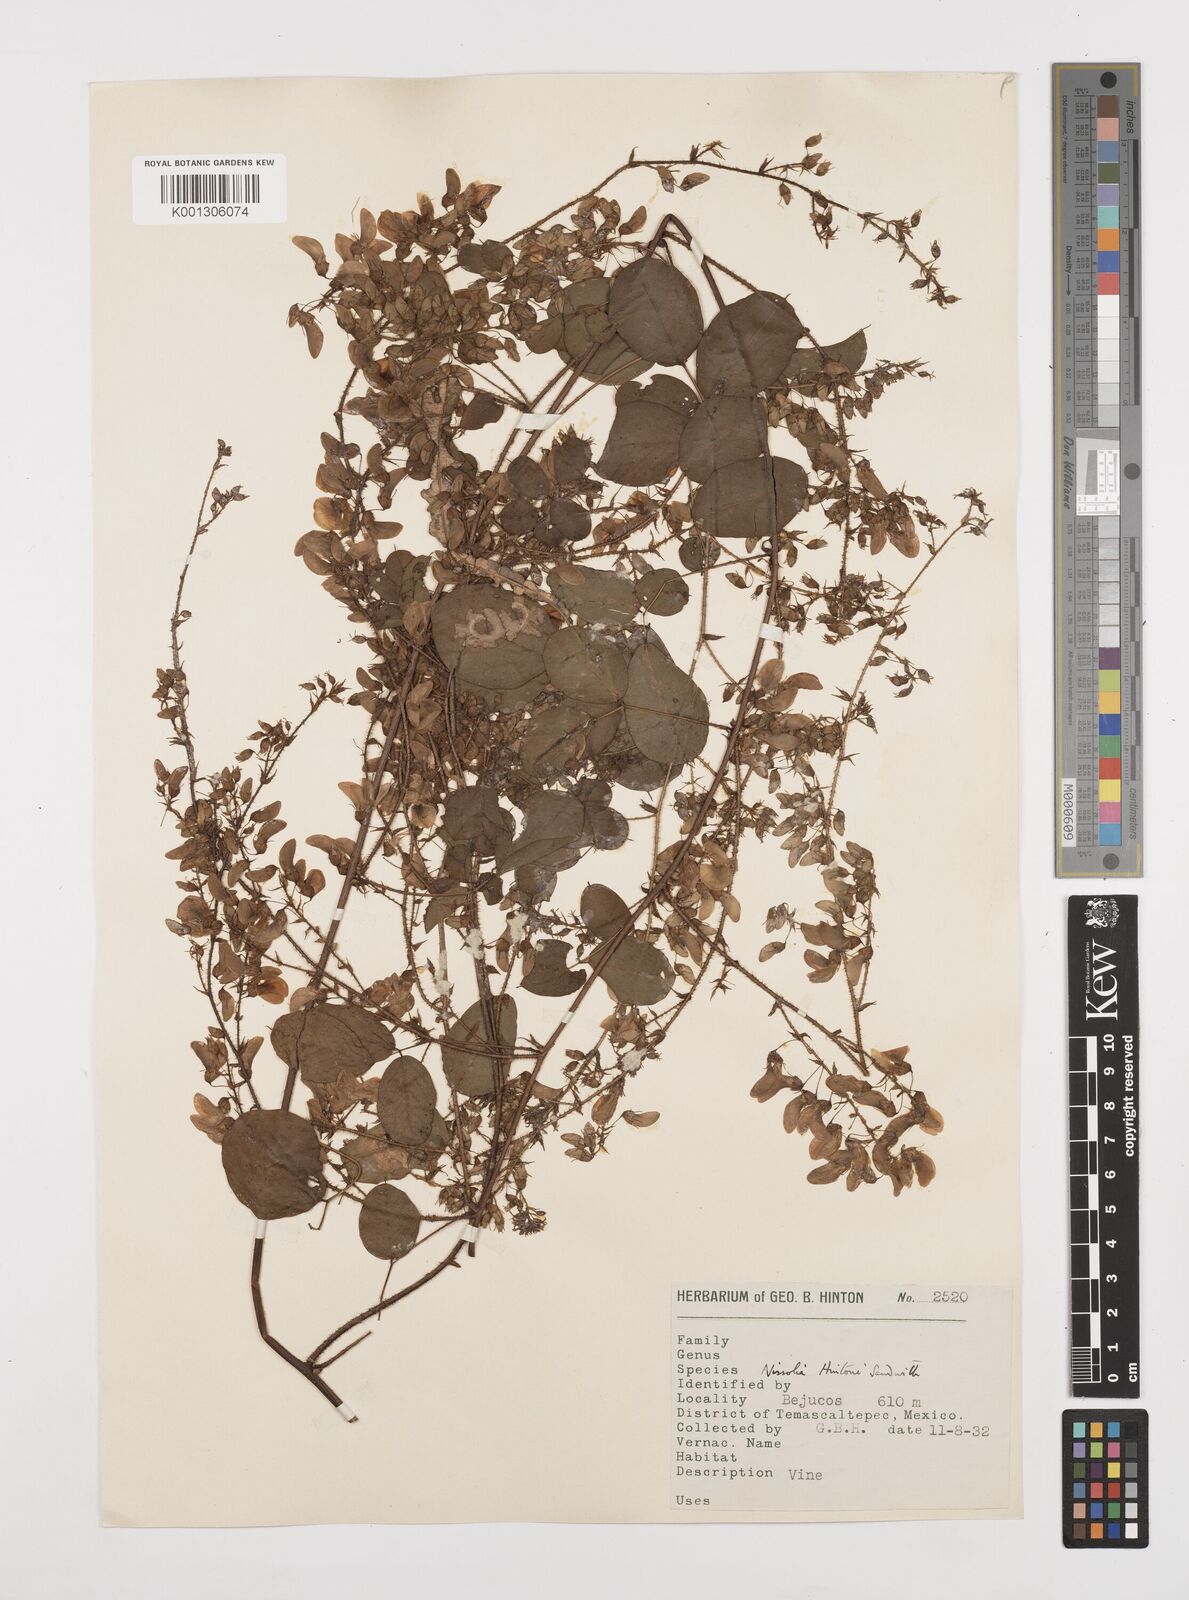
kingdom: Plantae
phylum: Tracheophyta
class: Magnoliopsida
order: Fabales
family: Fabaceae
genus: Nissolia
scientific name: Nissolia hintonii
